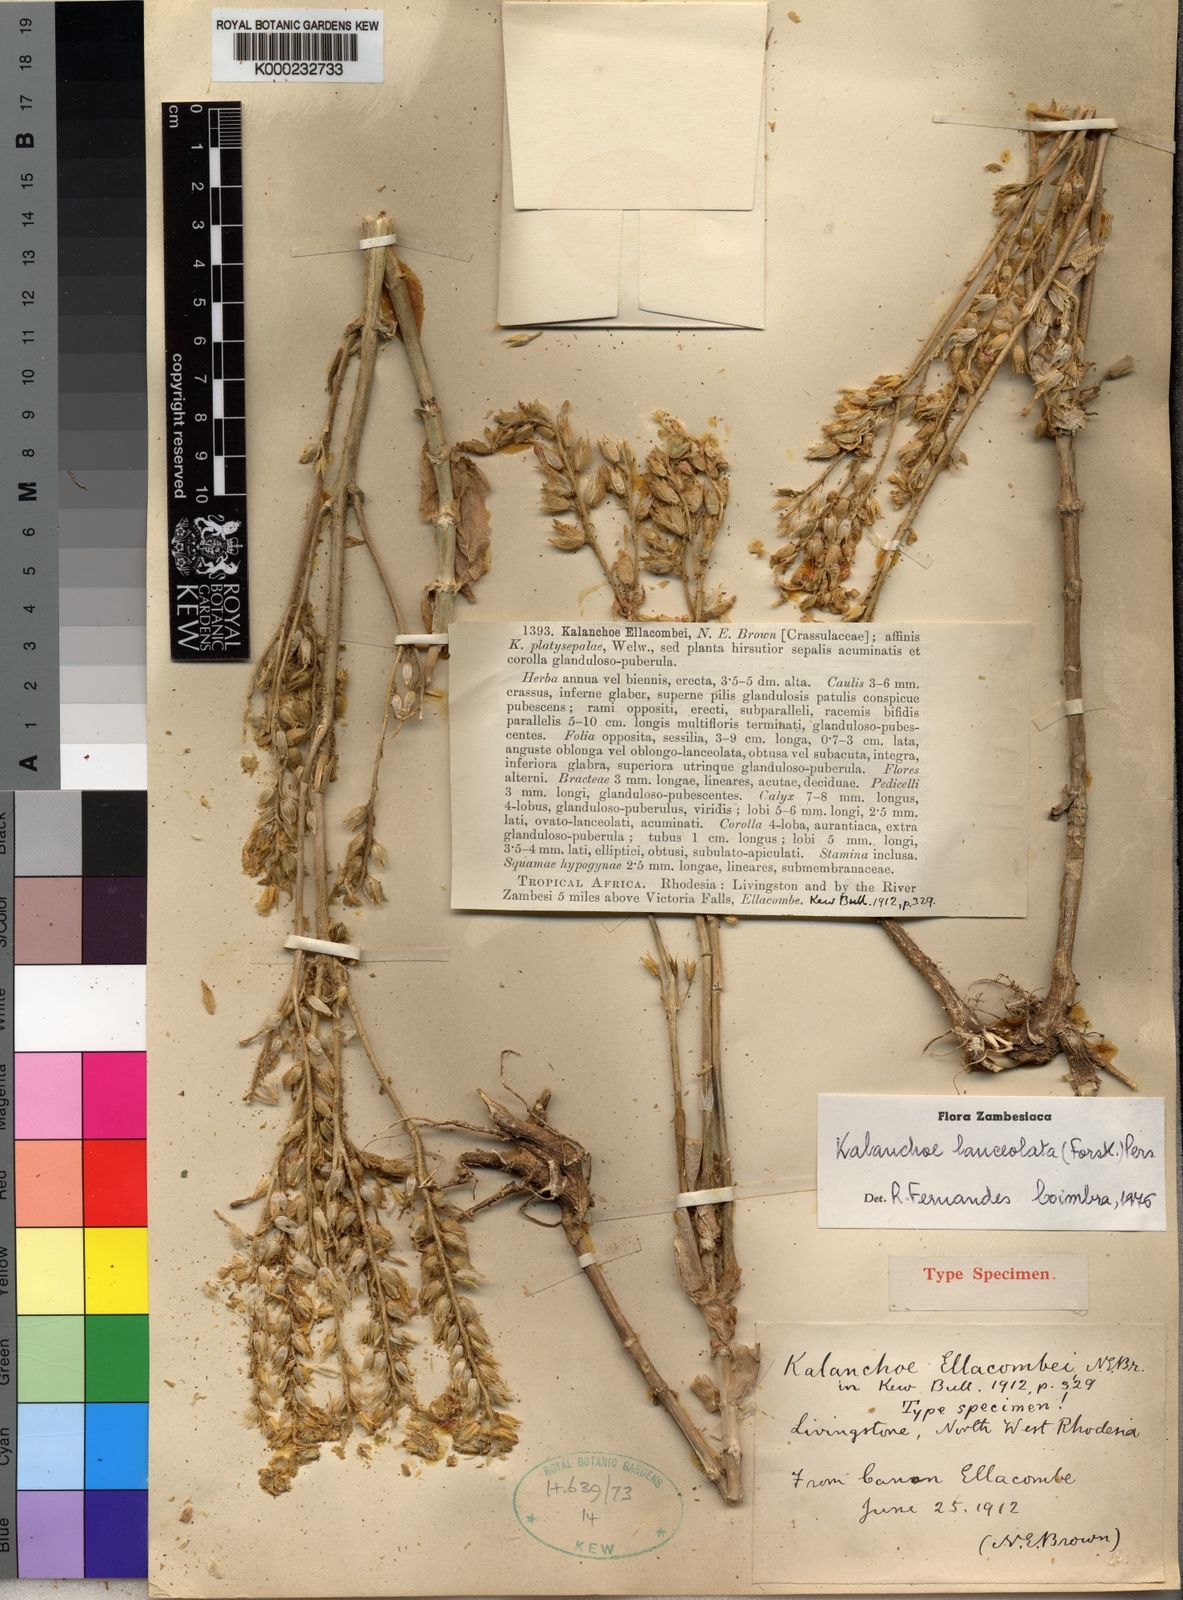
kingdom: Plantae
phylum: Tracheophyta
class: Magnoliopsida
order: Saxifragales
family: Crassulaceae
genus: Kalanchoe
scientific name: Kalanchoe lanceolata
